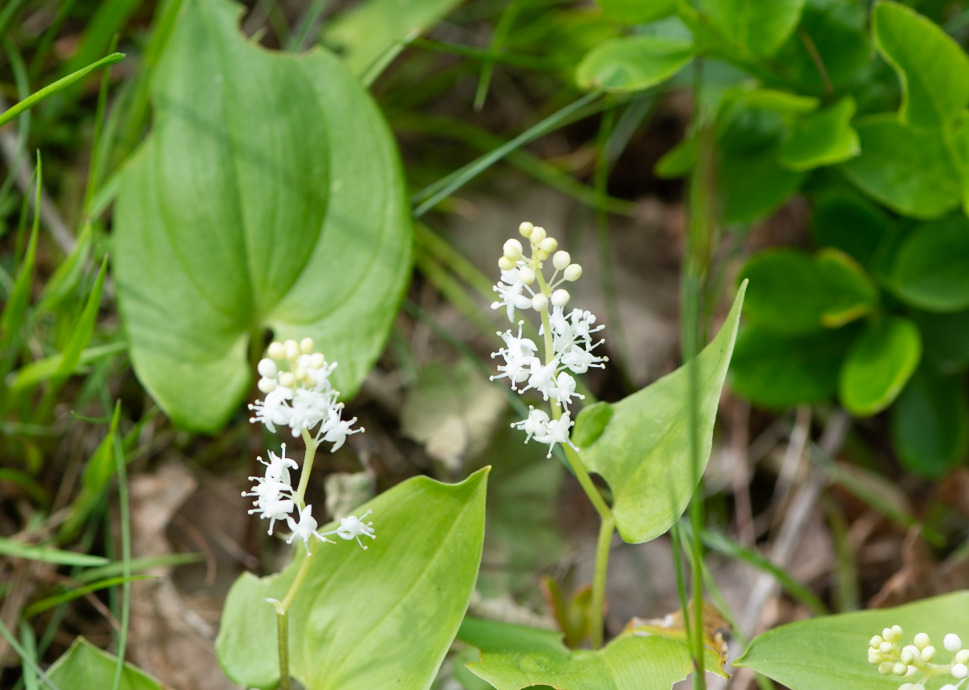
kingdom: Plantae
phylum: Tracheophyta
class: Liliopsida
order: Asparagales
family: Asparagaceae
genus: Maianthemum
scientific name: Maianthemum bifolium
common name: Majblomst
